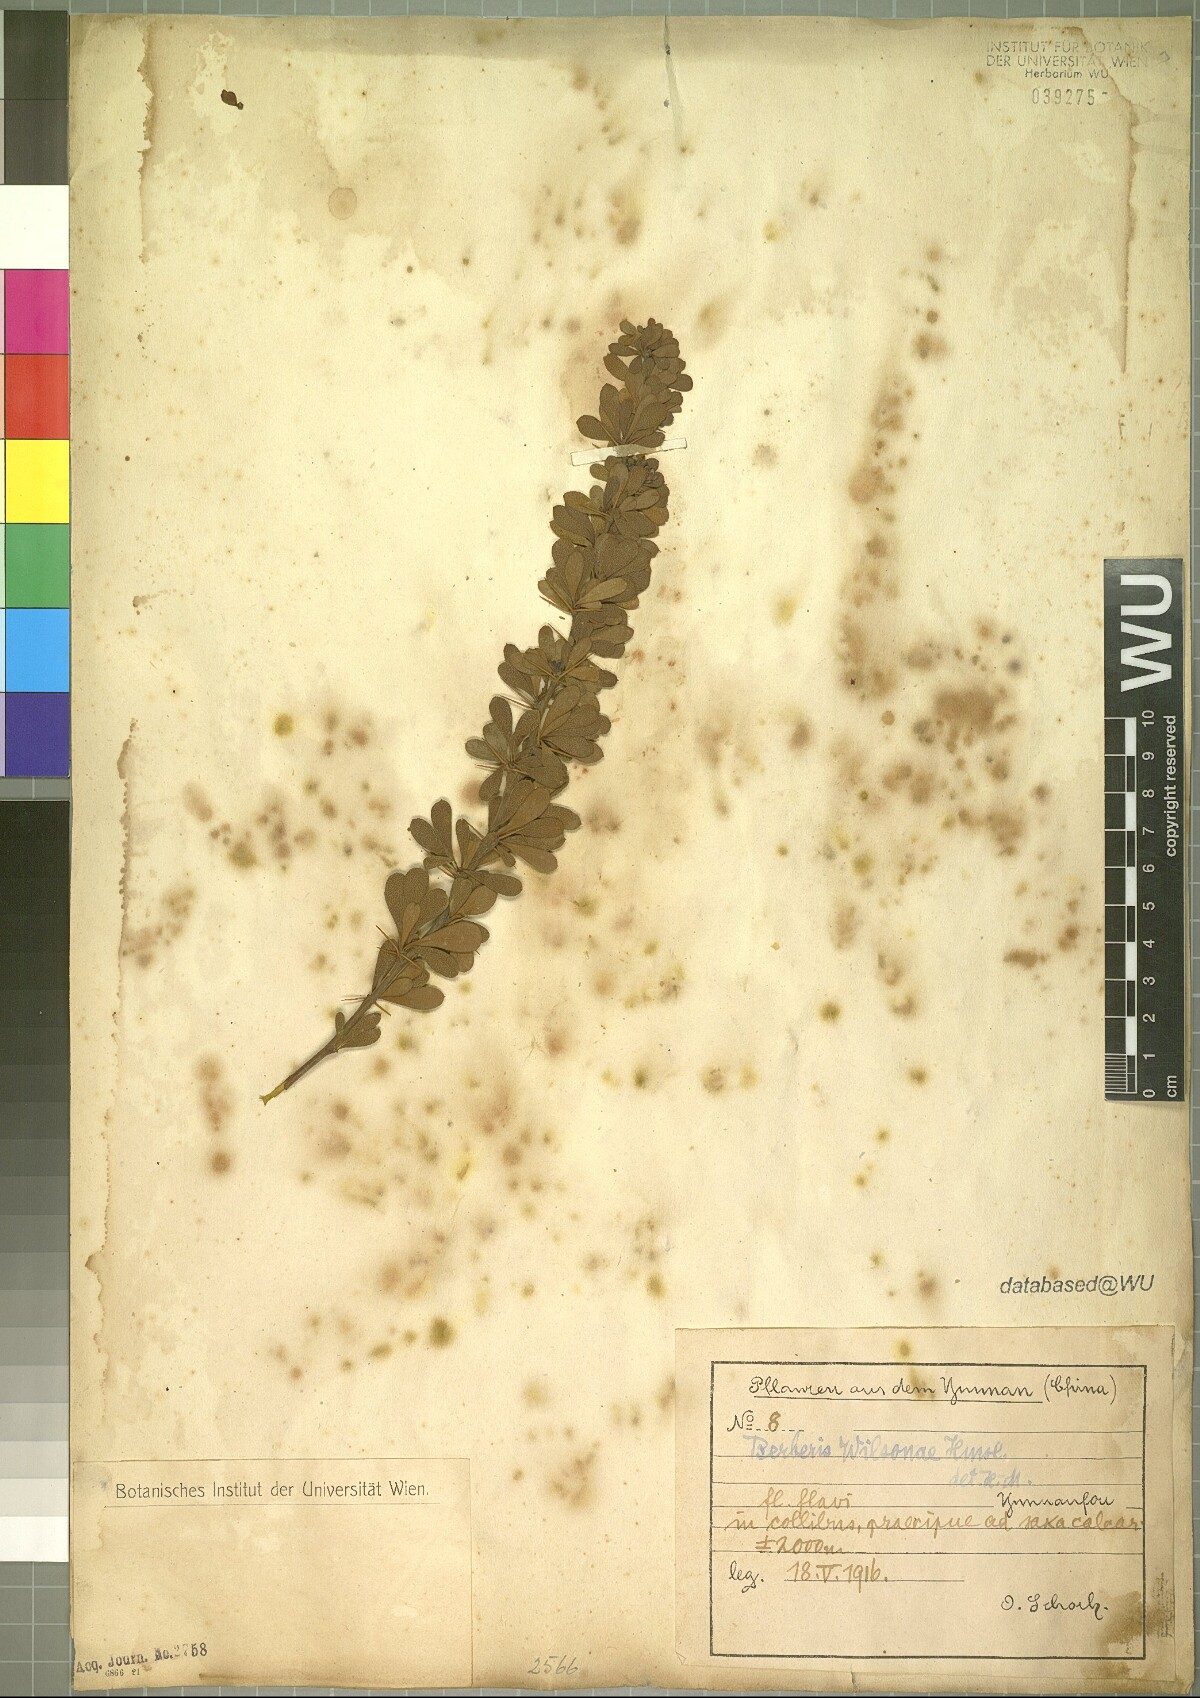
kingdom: Plantae
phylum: Tracheophyta
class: Magnoliopsida
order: Ranunculales
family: Berberidaceae
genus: Berberis
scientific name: Berberis wilsonii
